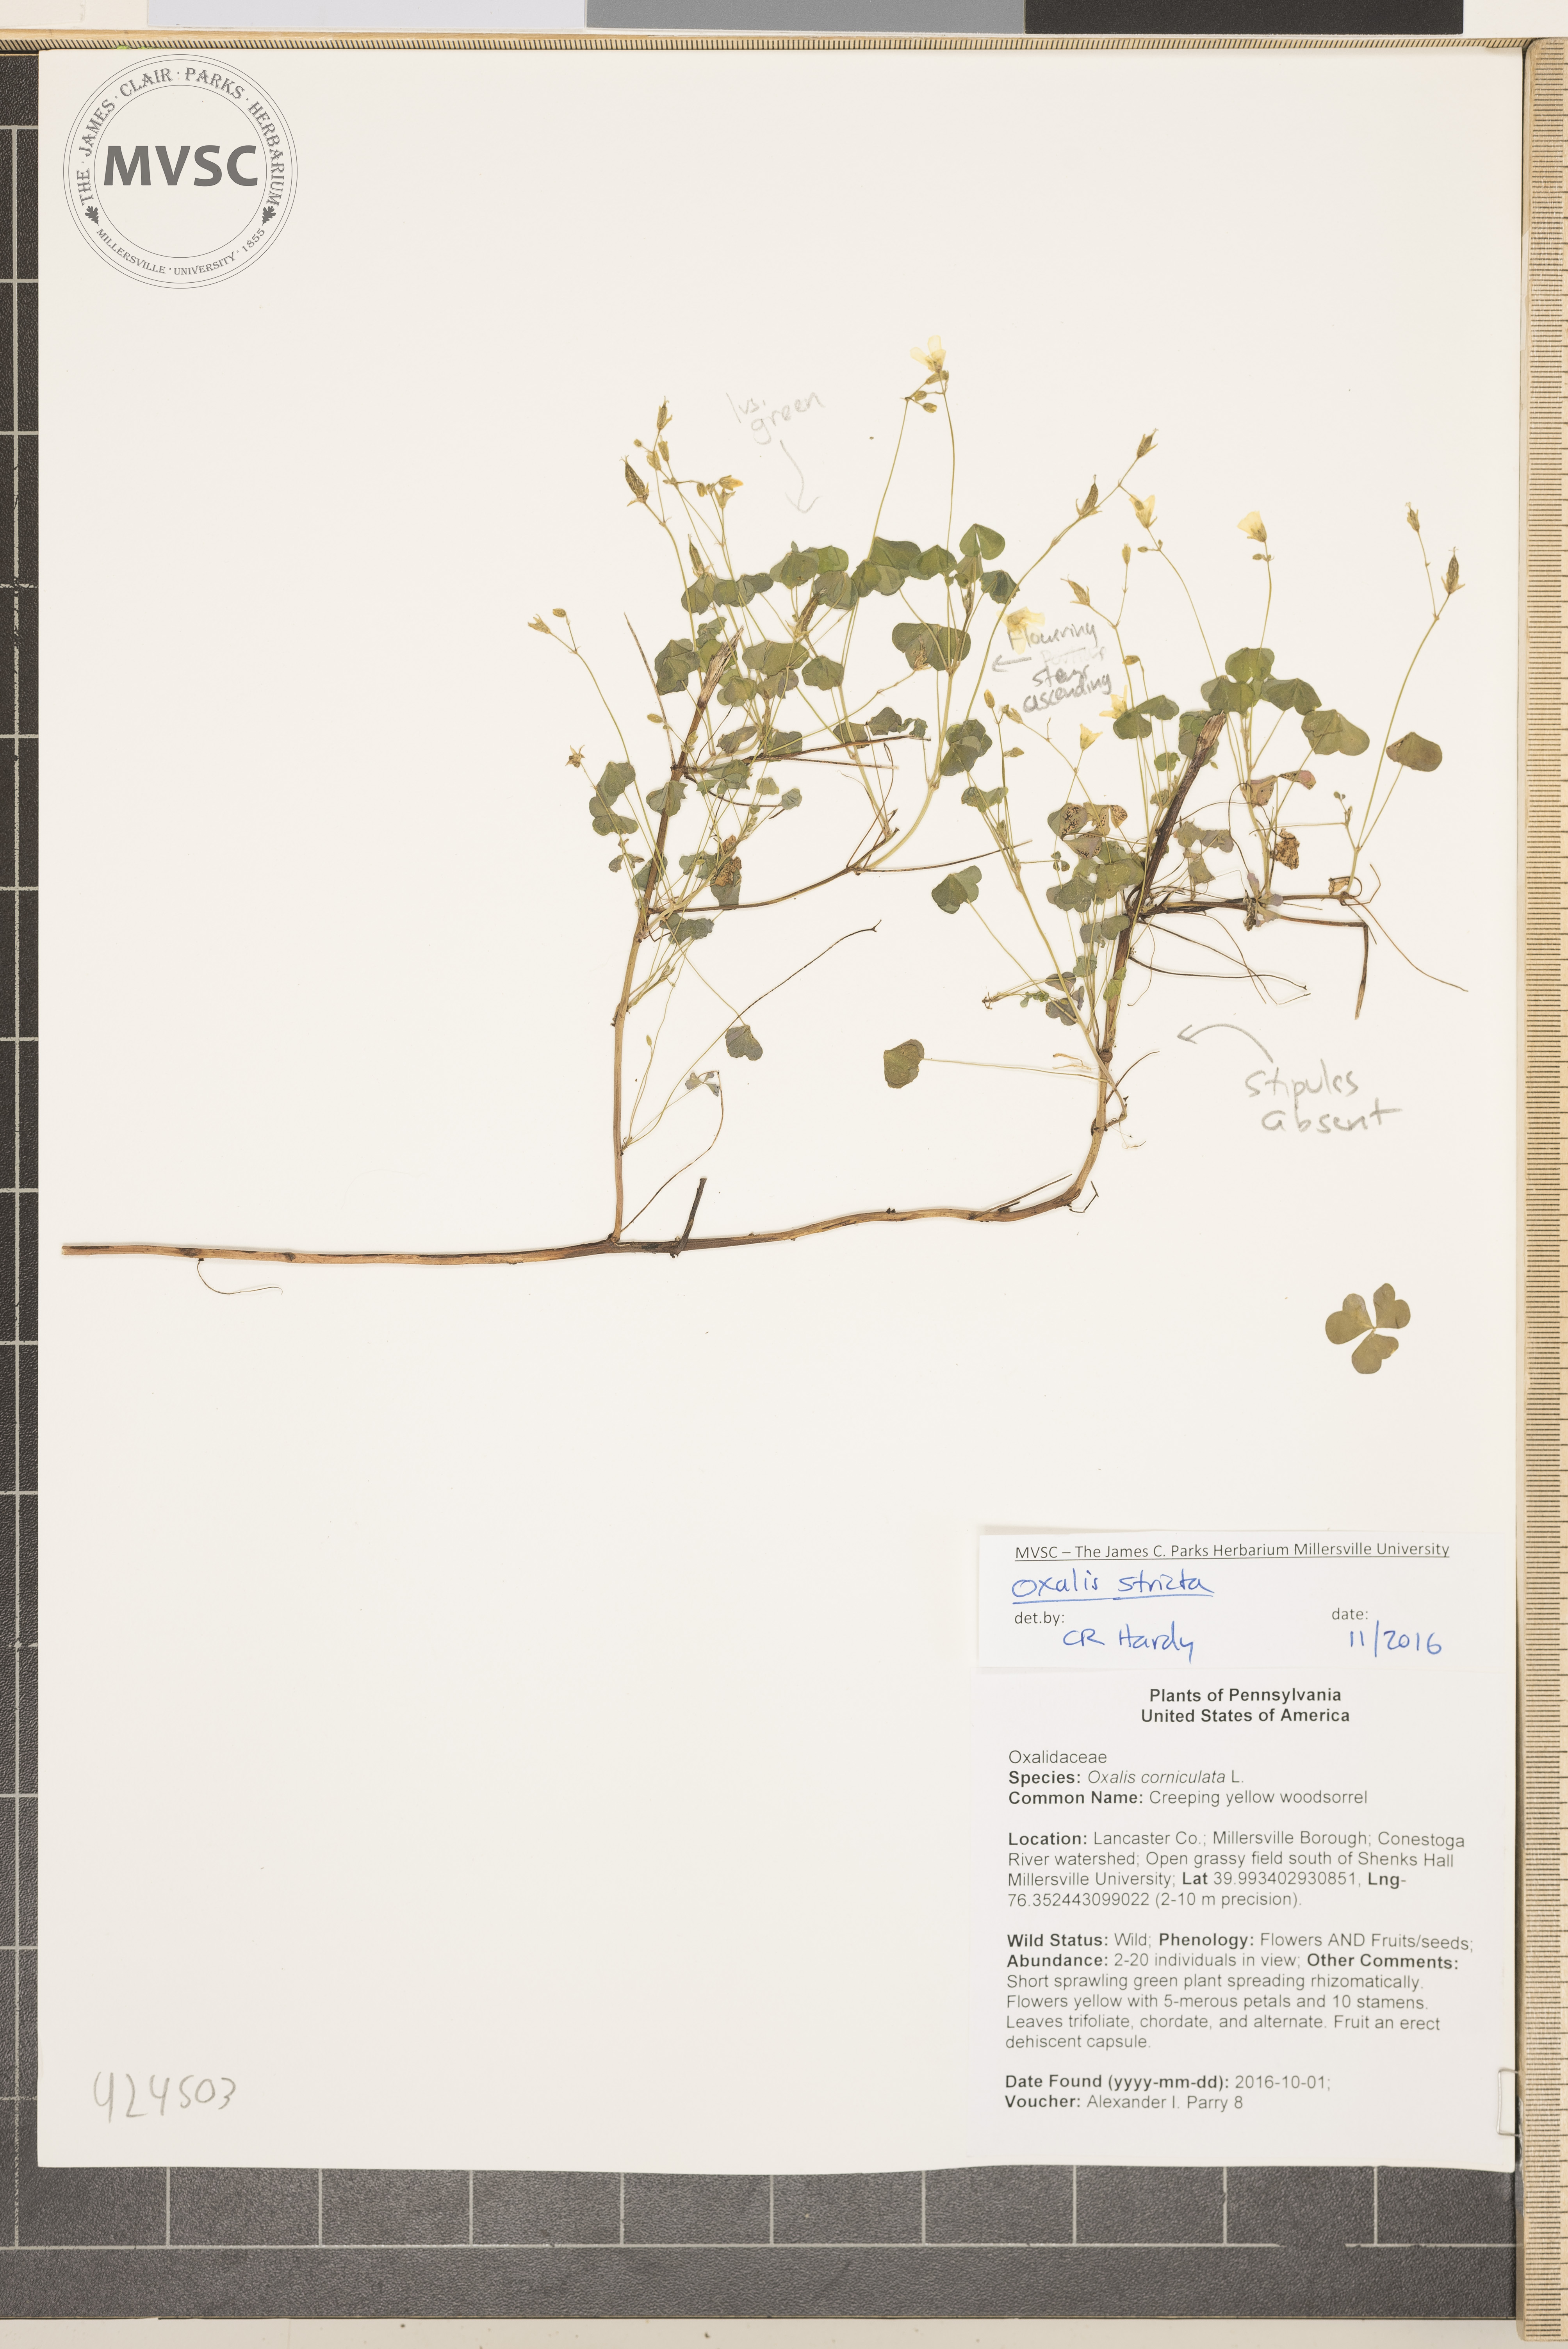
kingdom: Plantae
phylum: Tracheophyta
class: Magnoliopsida
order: Oxalidales
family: Oxalidaceae
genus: Oxalis
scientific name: Oxalis stricta
